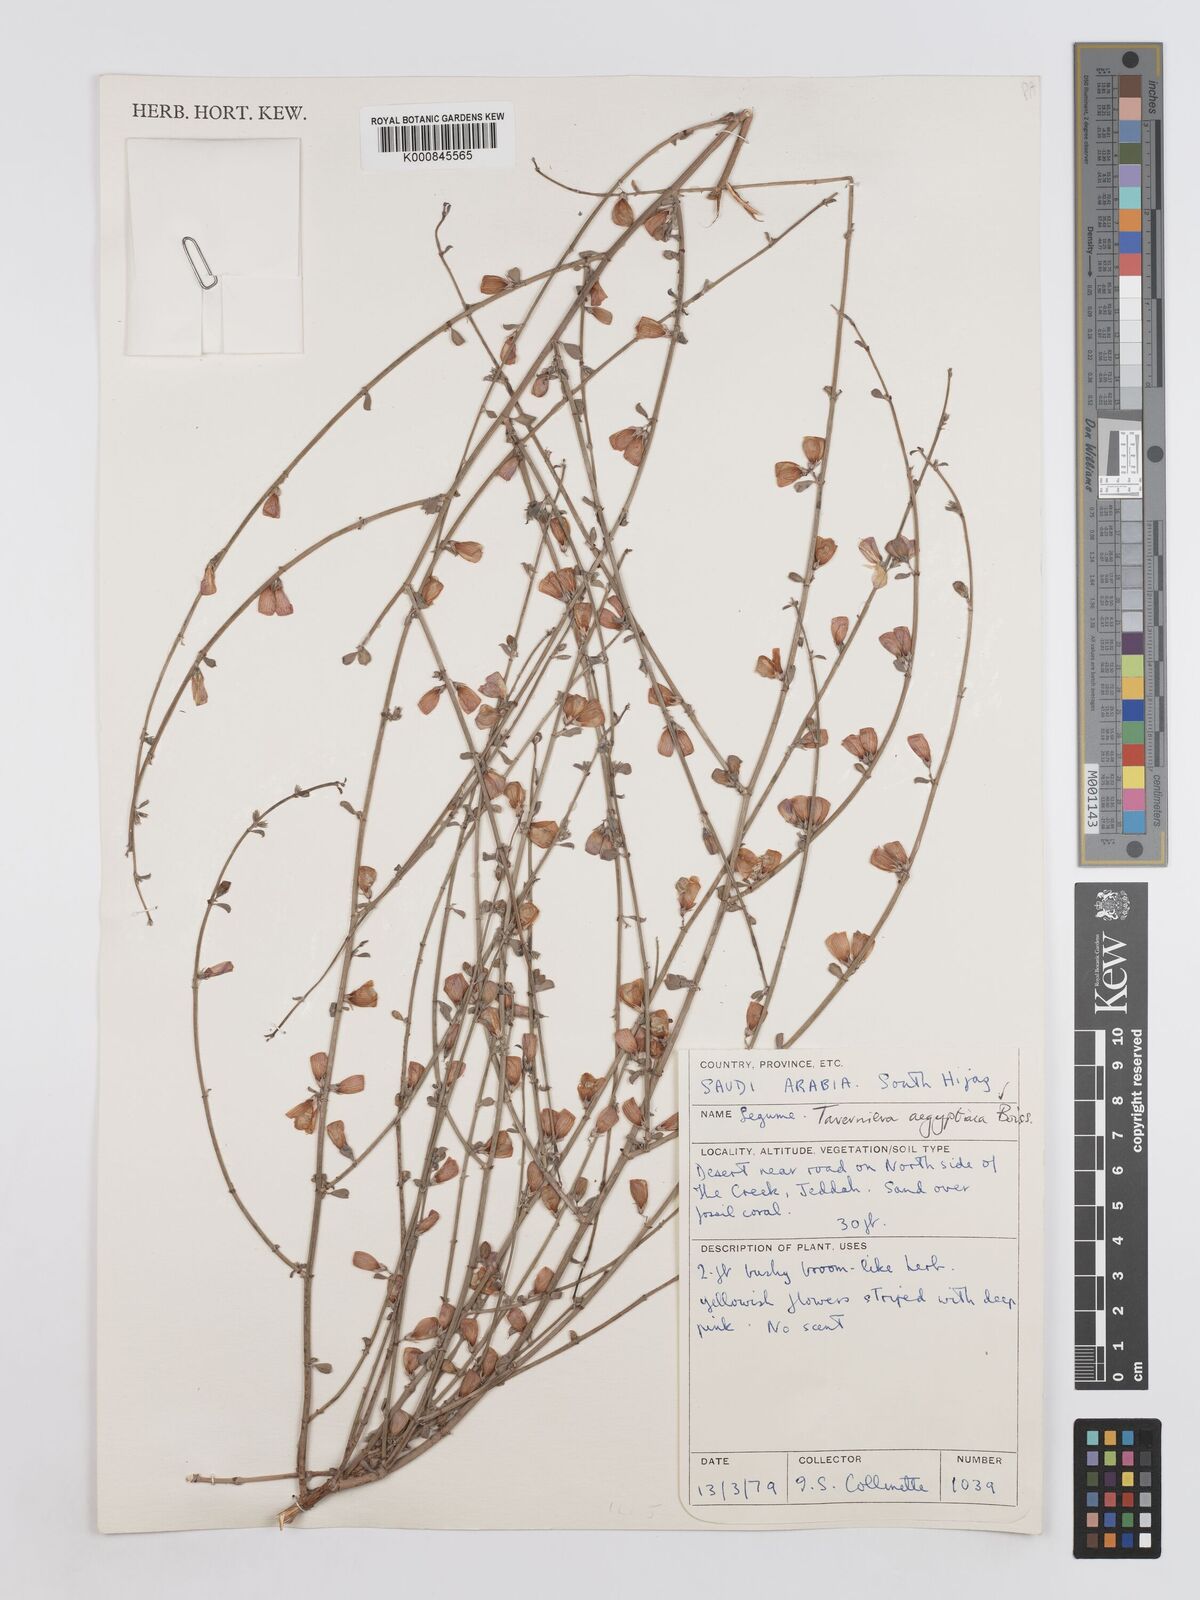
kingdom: Plantae
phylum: Tracheophyta
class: Magnoliopsida
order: Fabales
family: Fabaceae
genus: Taverniera
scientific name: Taverniera aegyptiaca
